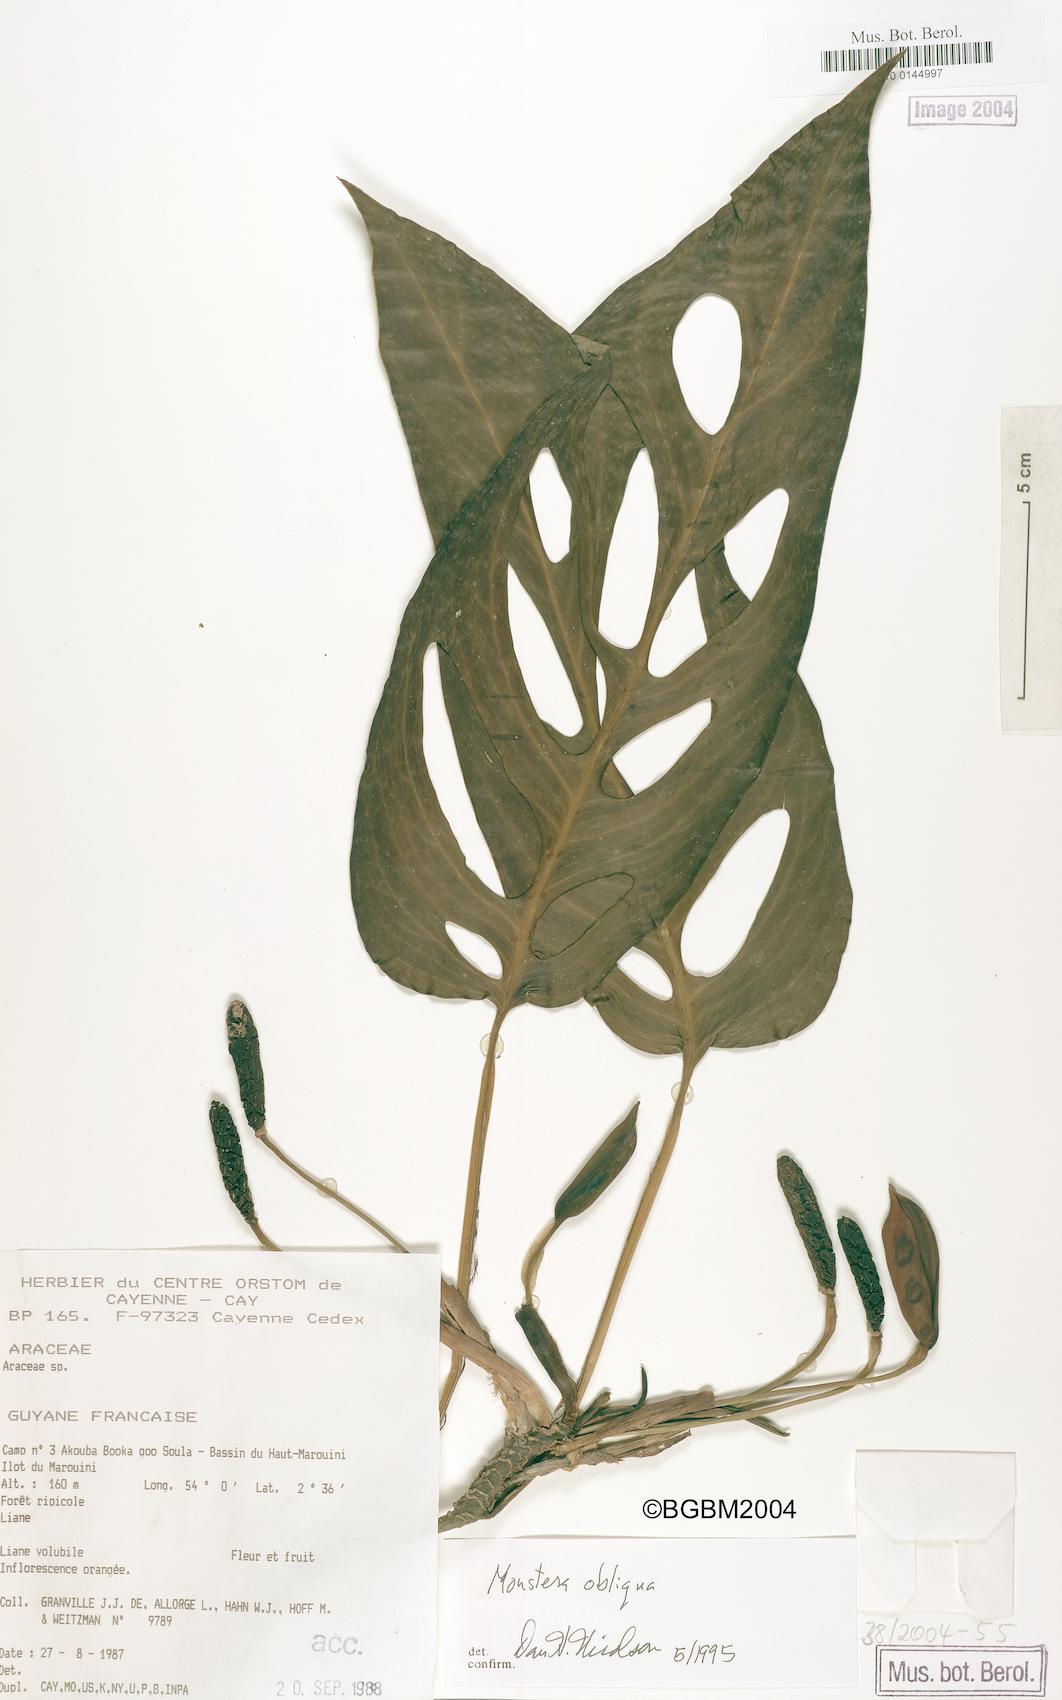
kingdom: Plantae
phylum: Tracheophyta
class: Liliopsida
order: Alismatales
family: Araceae
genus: Monstera
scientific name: Monstera obliqua
